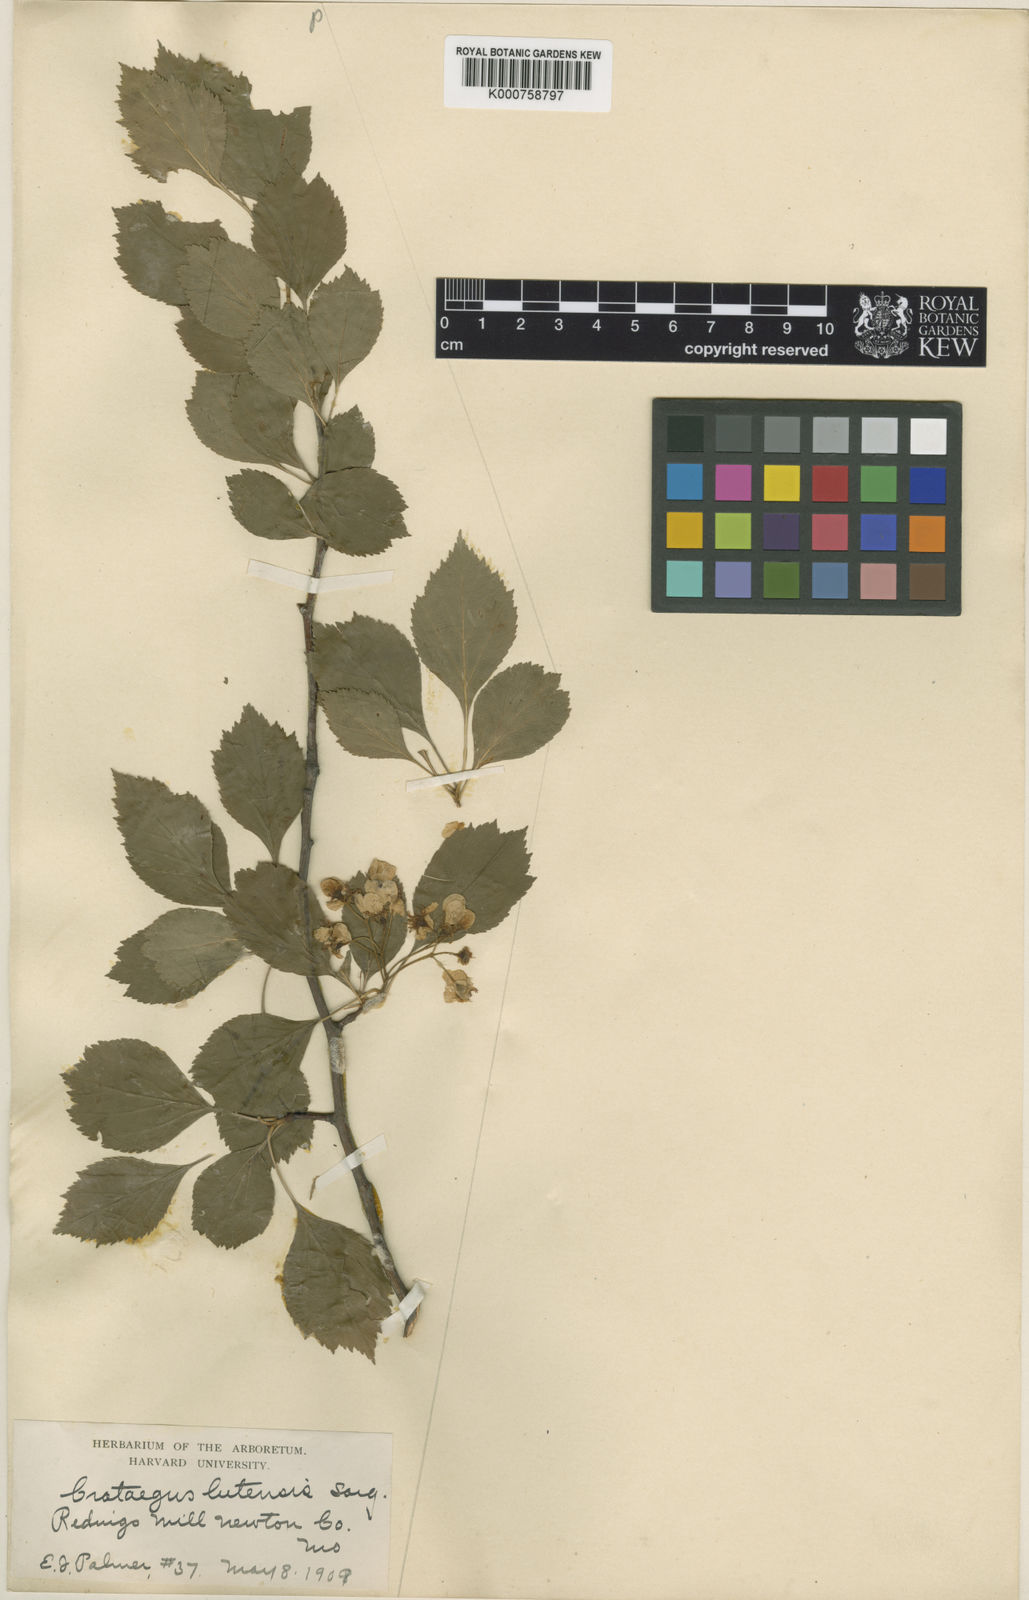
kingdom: Plantae
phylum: Tracheophyta
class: Magnoliopsida
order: Rosales
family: Rosaceae
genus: Crataegus
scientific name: Crataegus viridis
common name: Southernthorn
